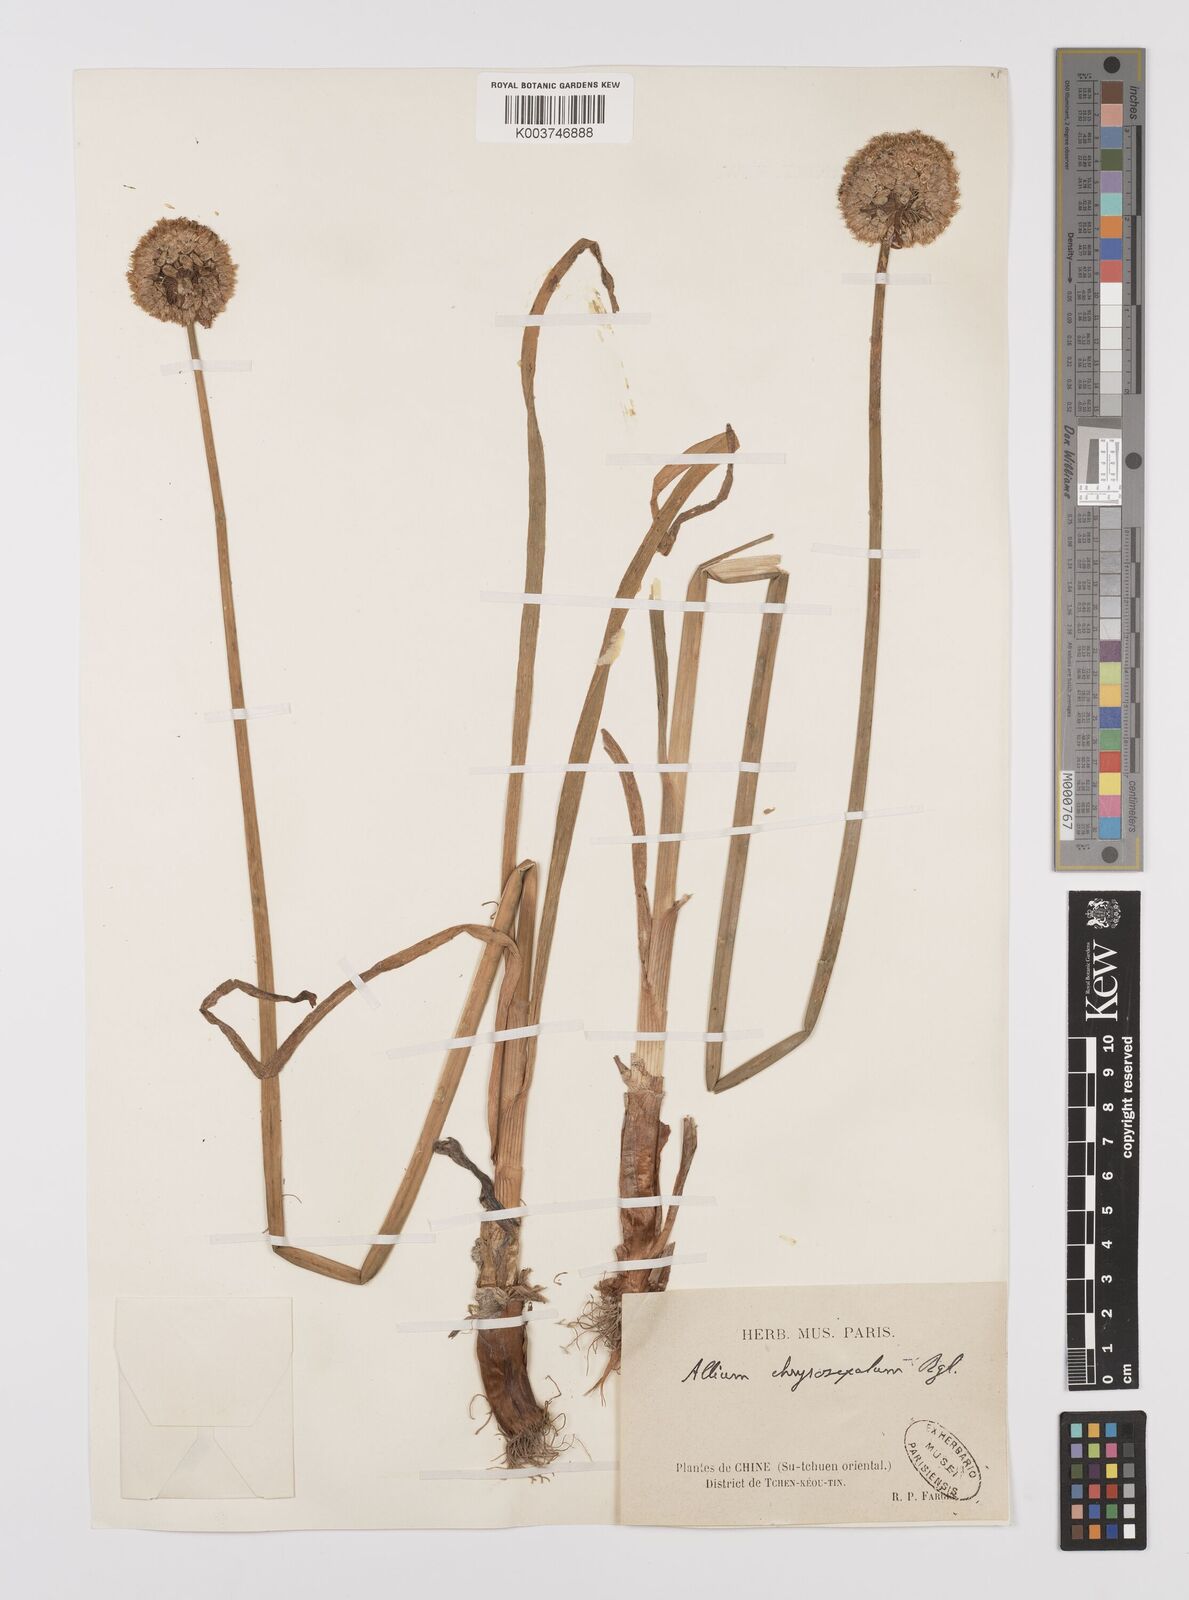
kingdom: Plantae
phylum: Tracheophyta
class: Liliopsida
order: Asparagales
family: Amaryllidaceae
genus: Allium
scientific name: Allium chrysocephalum
